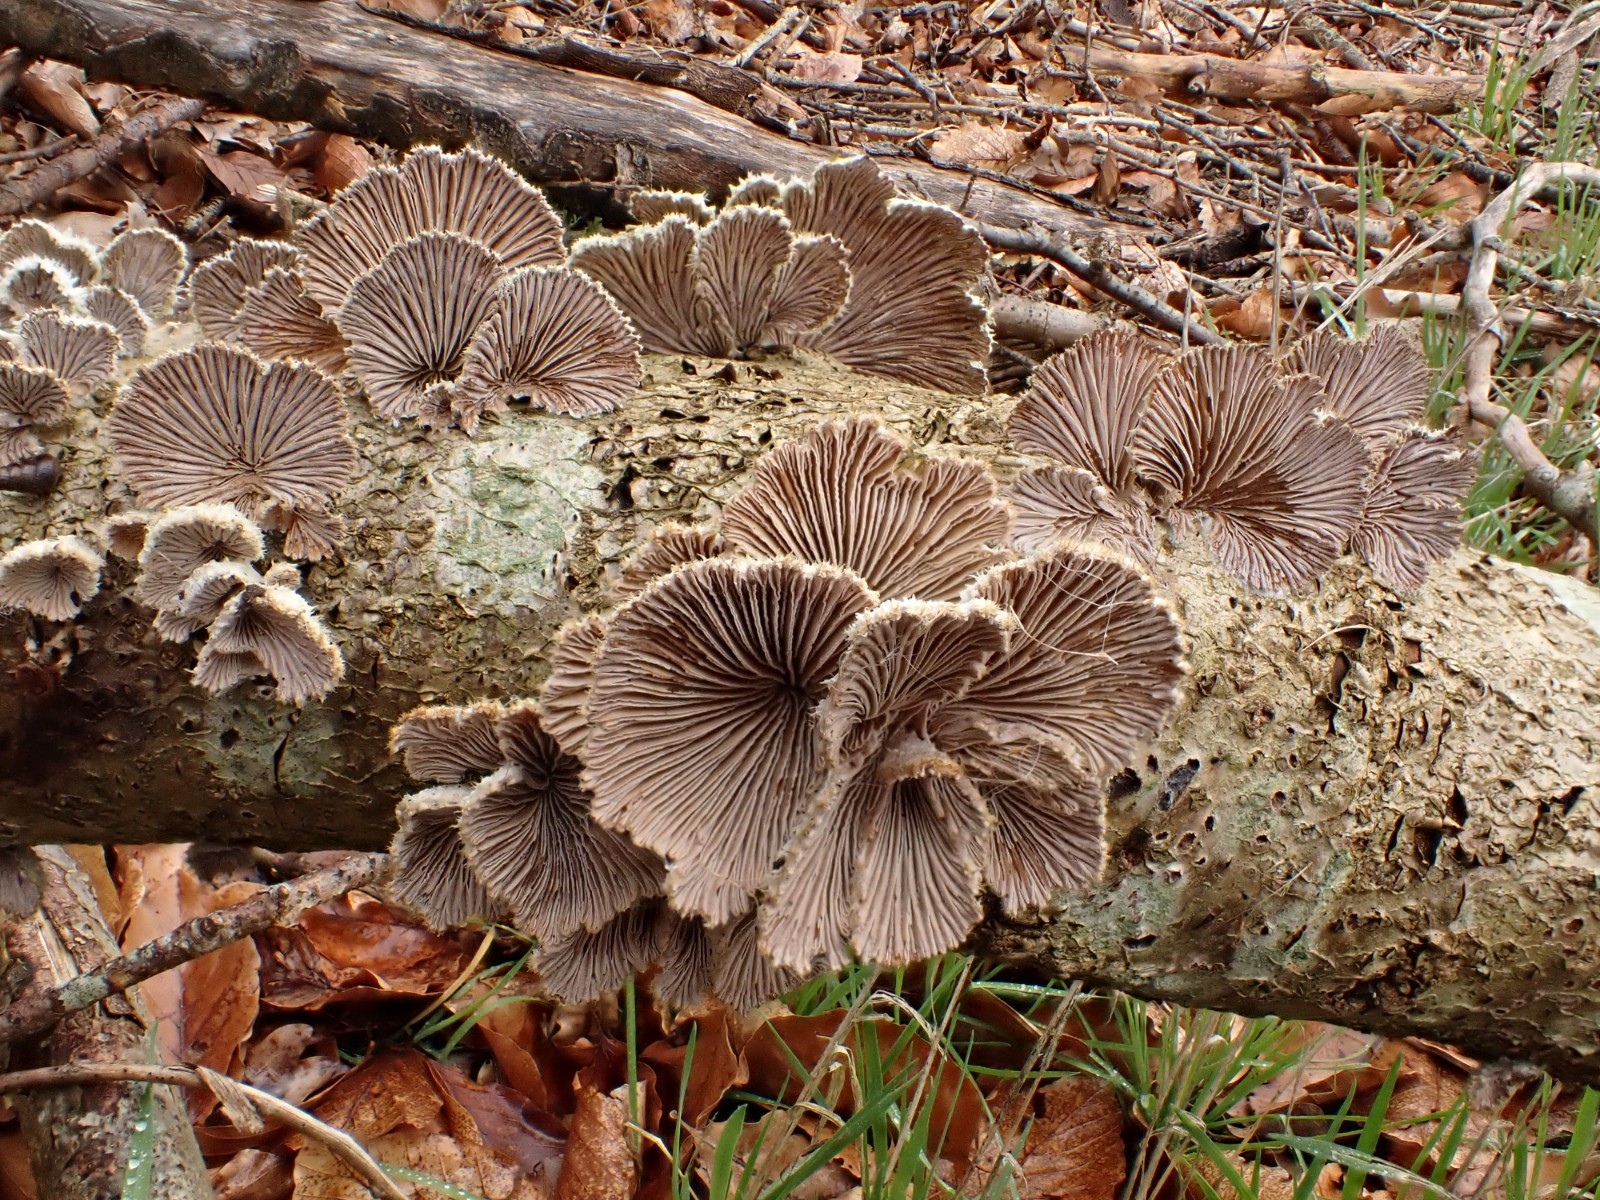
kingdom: Fungi
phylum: Basidiomycota
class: Agaricomycetes
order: Agaricales
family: Schizophyllaceae
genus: Schizophyllum
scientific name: Schizophyllum commune
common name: kløvblad
